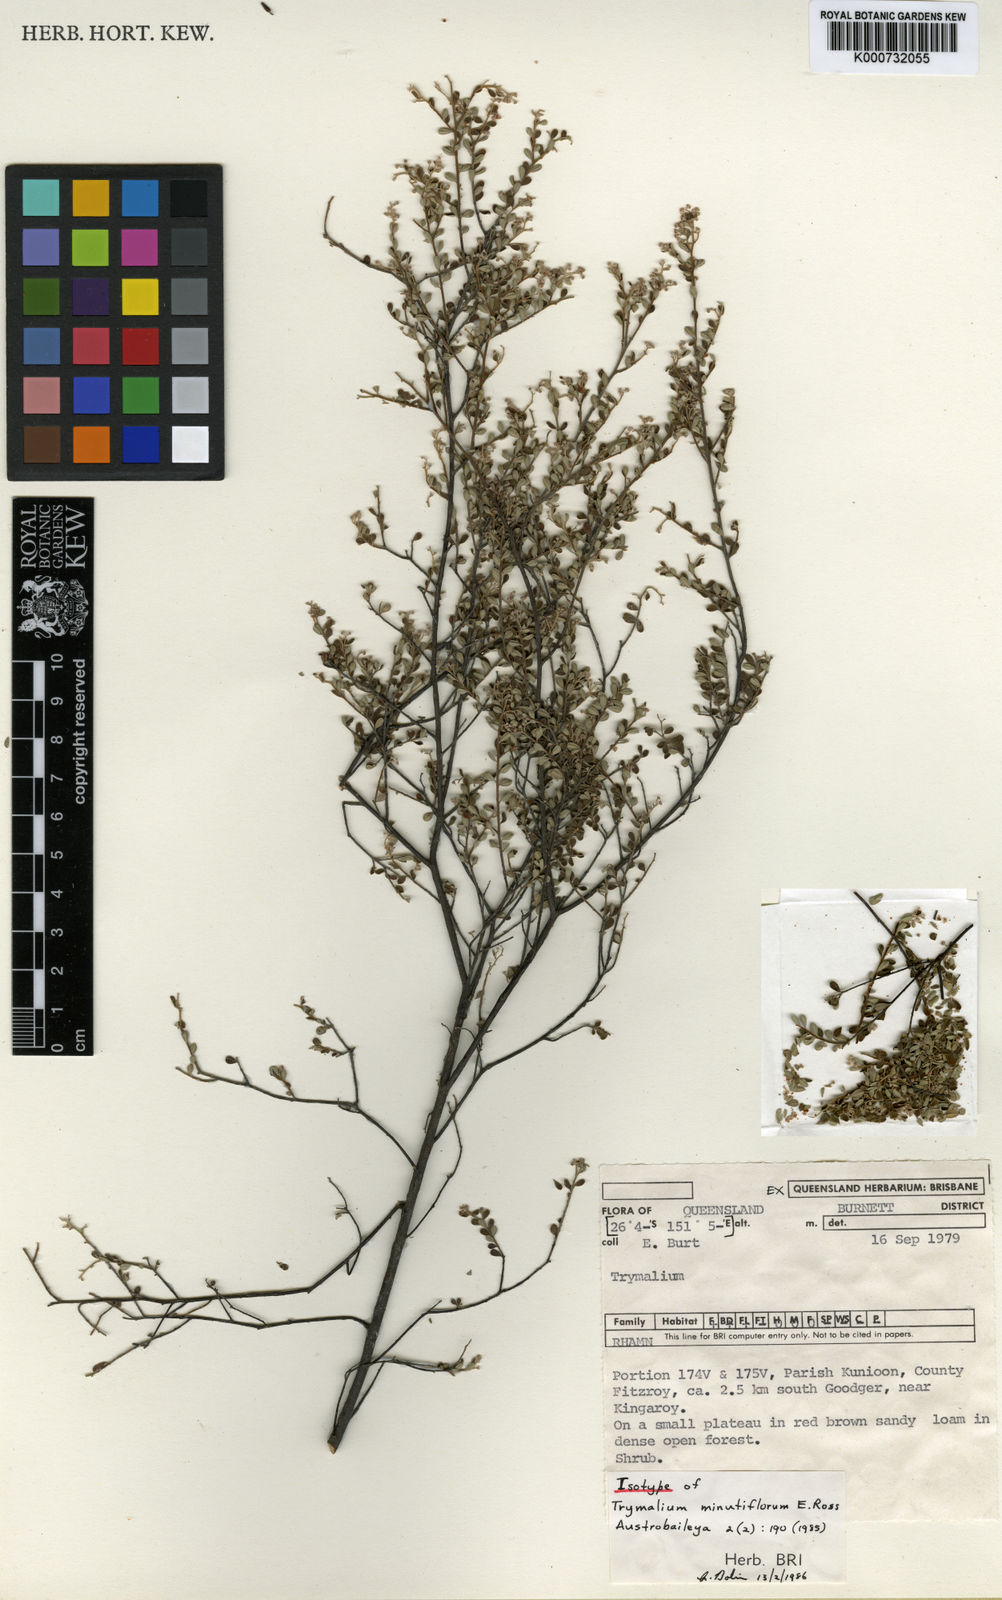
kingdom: Plantae
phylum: Tracheophyta
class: Magnoliopsida
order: Rosales
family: Rhamnaceae
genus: Polianthion
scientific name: Polianthion minutiflorum
